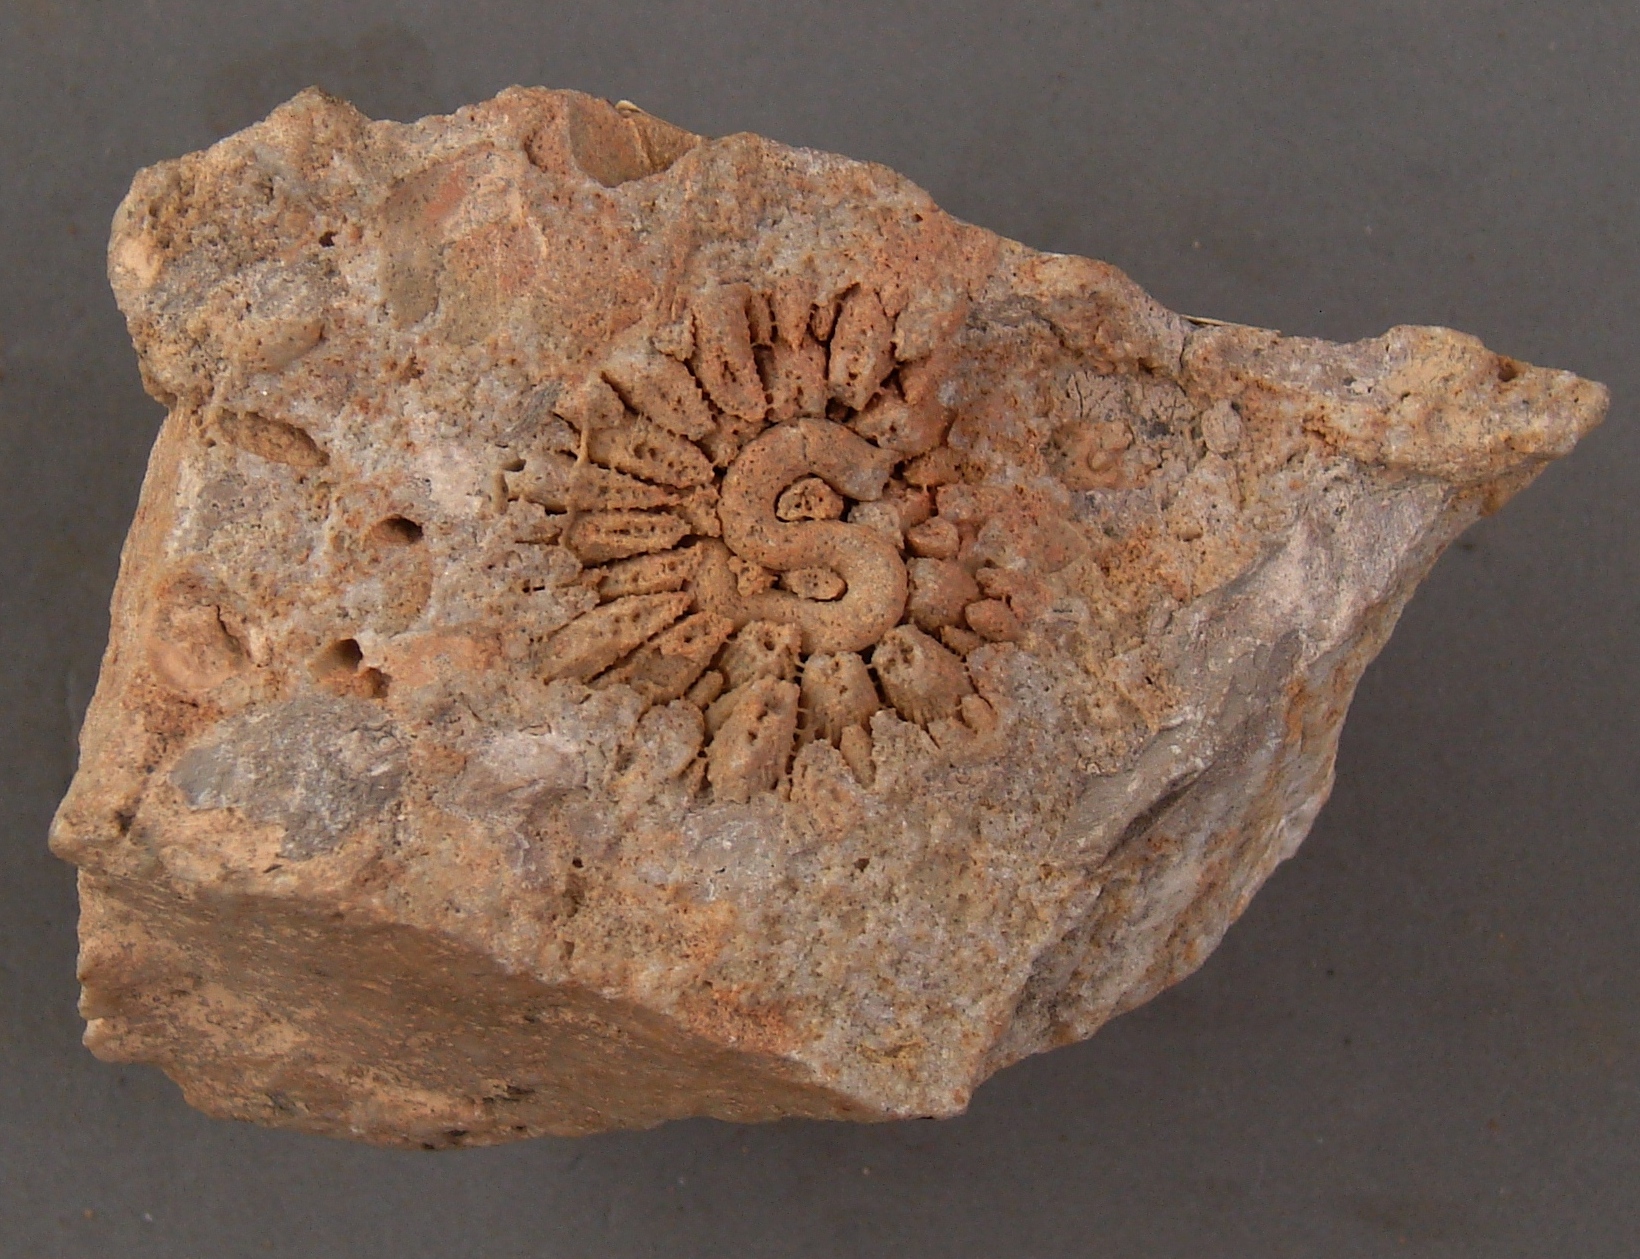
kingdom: Animalia
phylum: Cnidaria
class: Anthozoa
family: Micheliniidae
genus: Pleurodictyum
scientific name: Pleurodictyum
